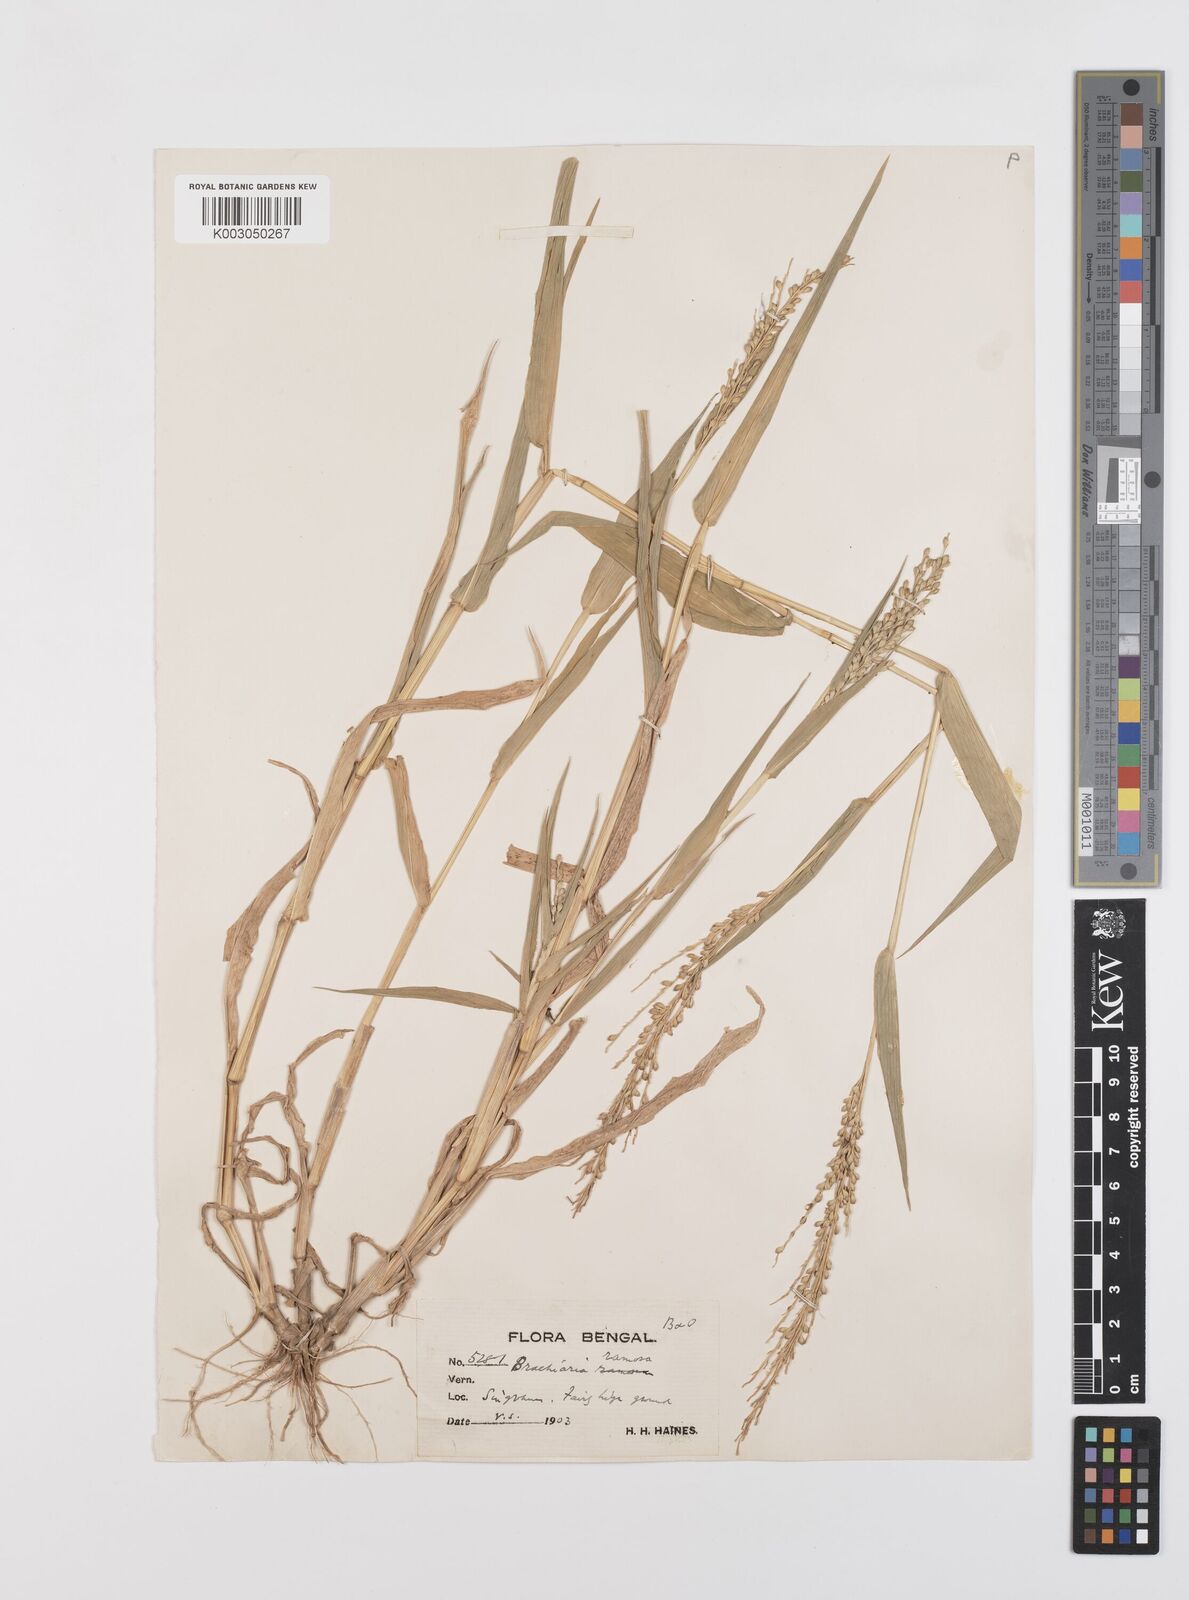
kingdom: Plantae
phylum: Tracheophyta
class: Liliopsida
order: Poales
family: Poaceae
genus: Urochloa
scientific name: Urochloa ramosa
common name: Browntop millet
